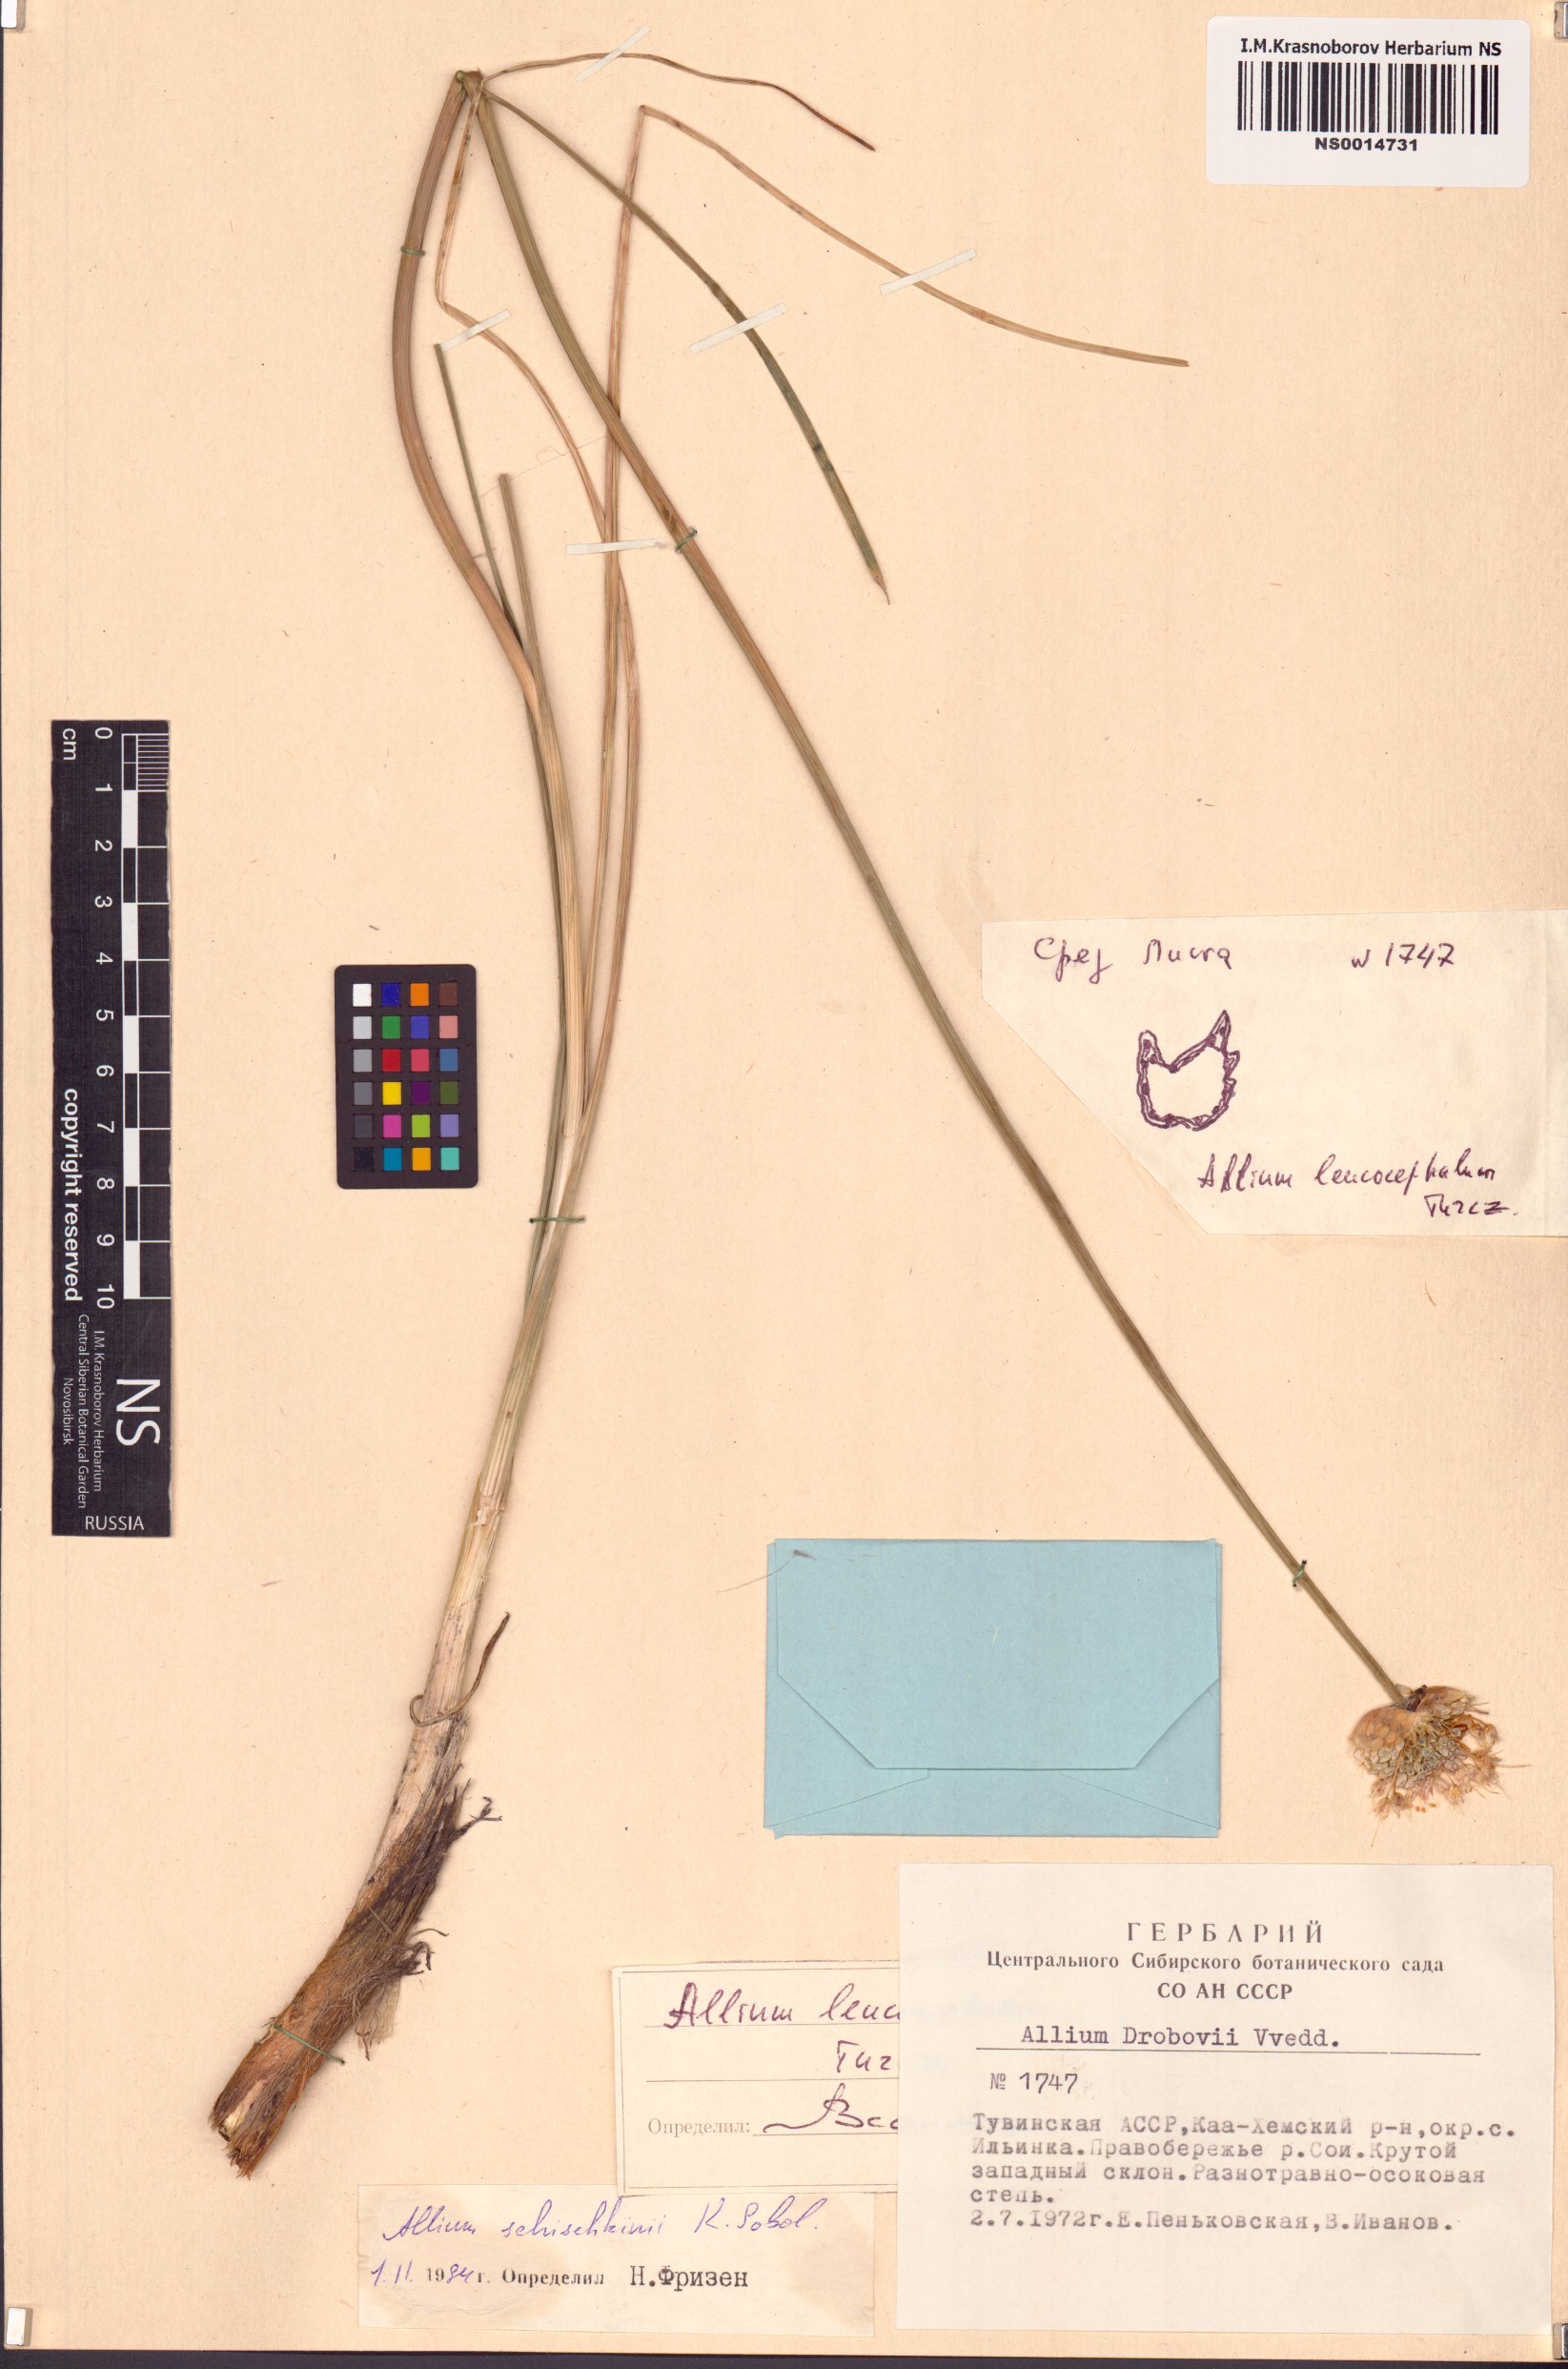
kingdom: Plantae
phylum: Tracheophyta
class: Liliopsida
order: Asparagales
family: Amaryllidaceae
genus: Allium
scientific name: Allium schischkinii
